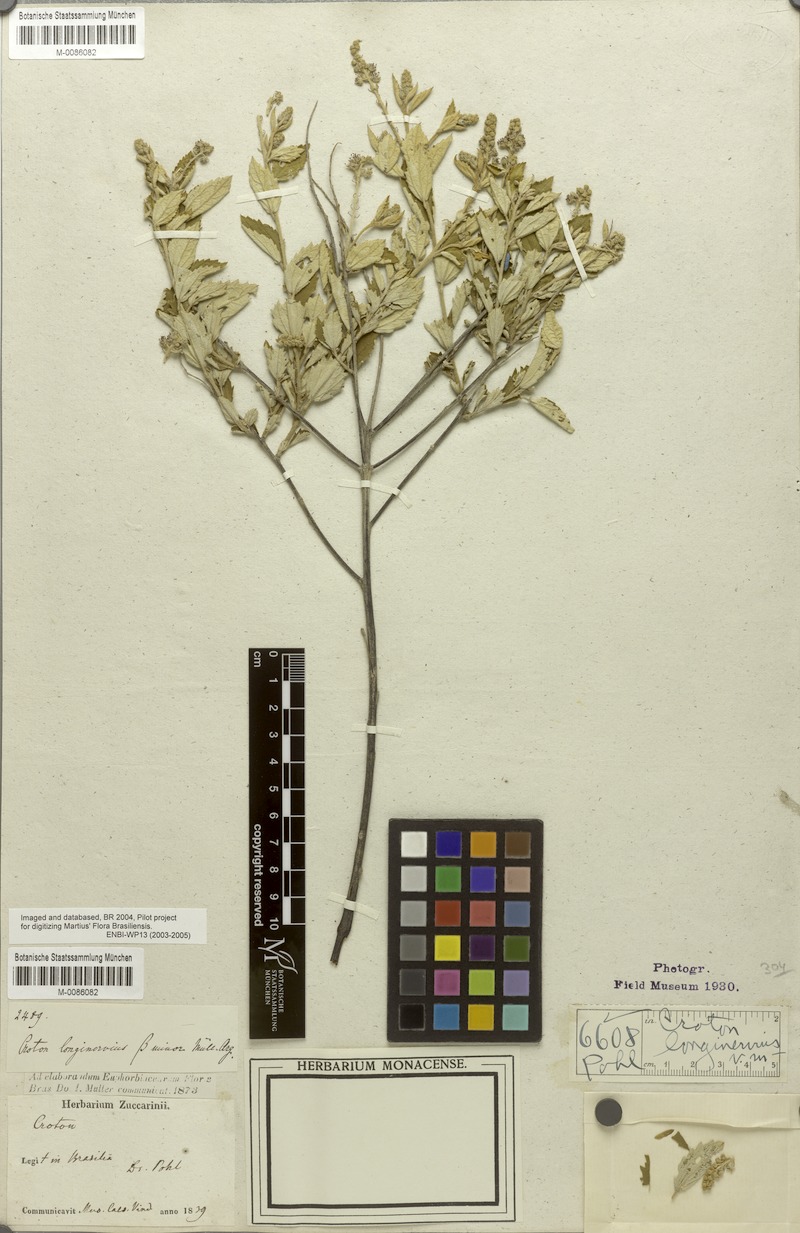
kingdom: Plantae
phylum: Tracheophyta
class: Magnoliopsida
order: Malpighiales
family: Euphorbiaceae
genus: Croton
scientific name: Croton abaitensis
